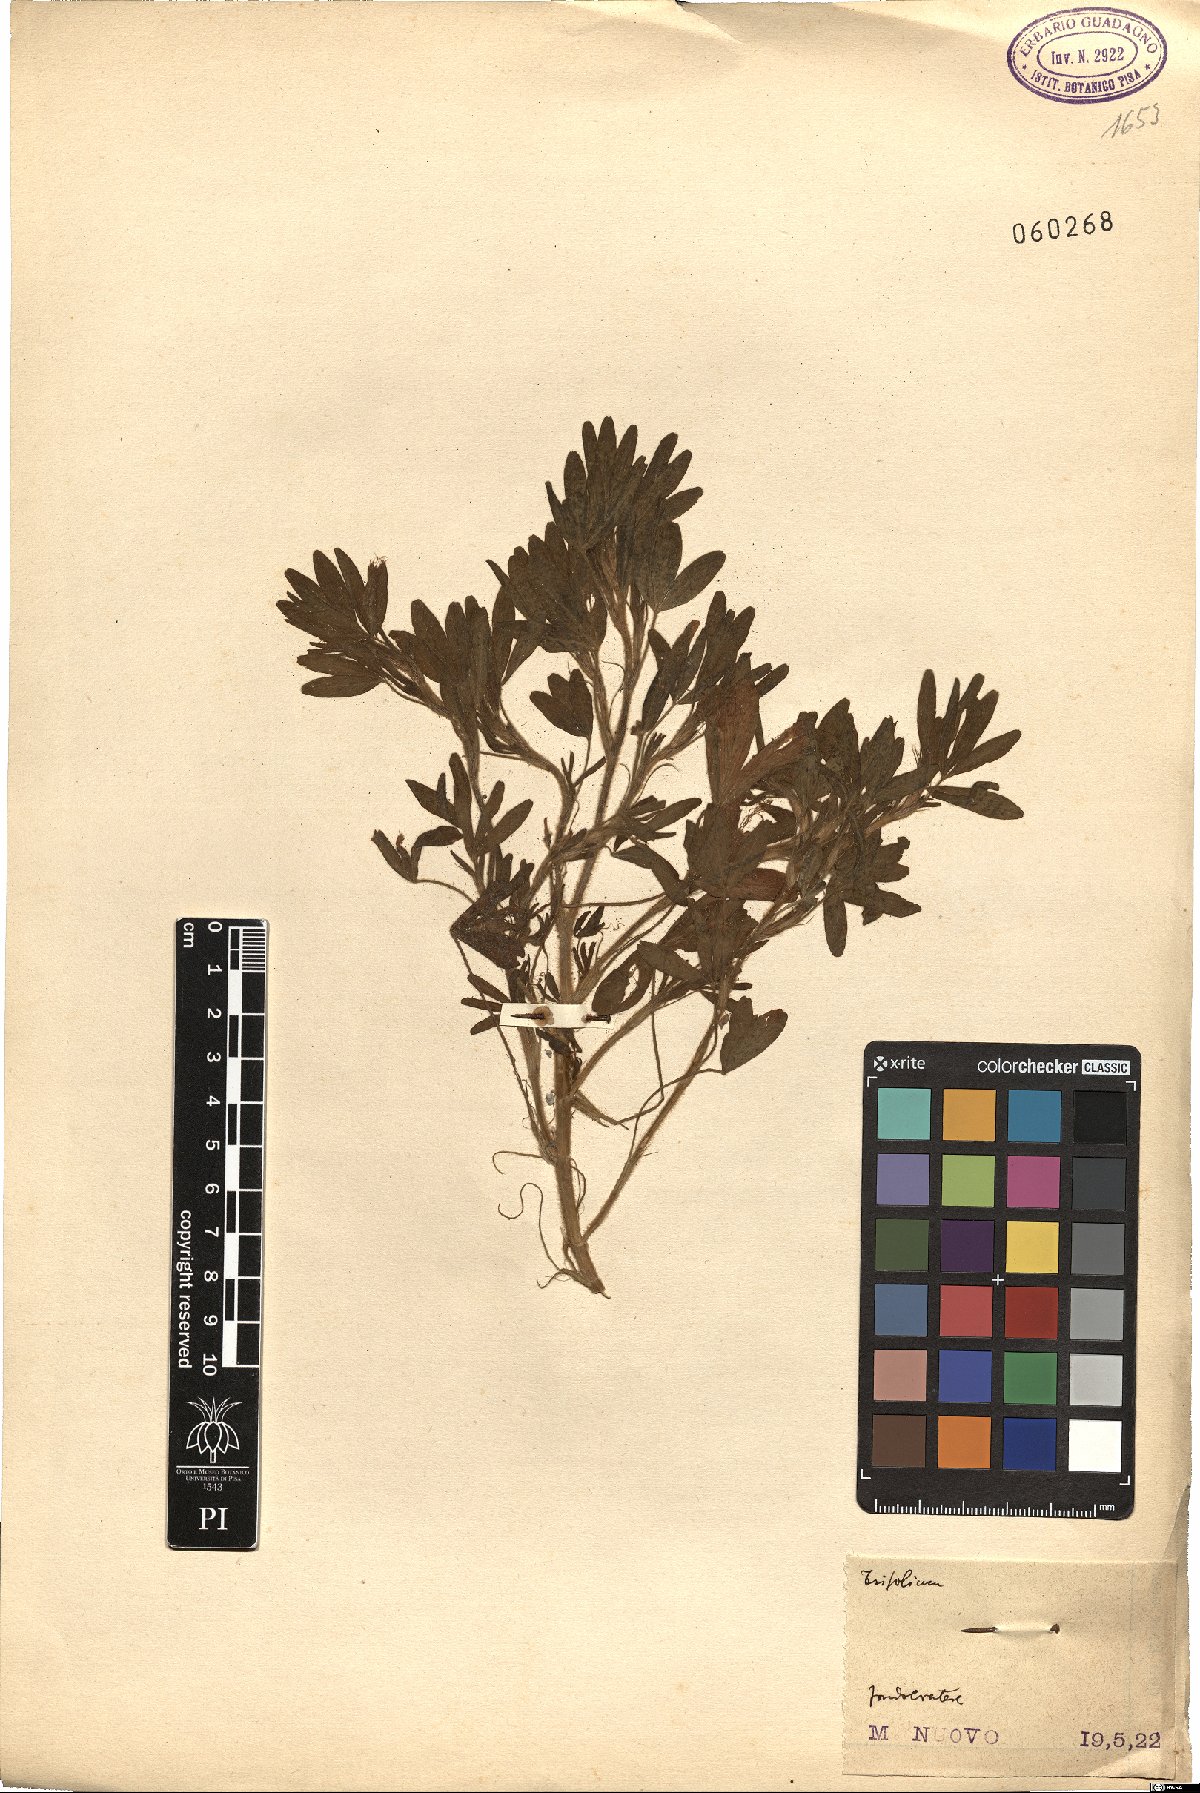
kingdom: Plantae
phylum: Tracheophyta
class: Magnoliopsida
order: Fabales
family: Fabaceae
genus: Trifolium
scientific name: Trifolium
